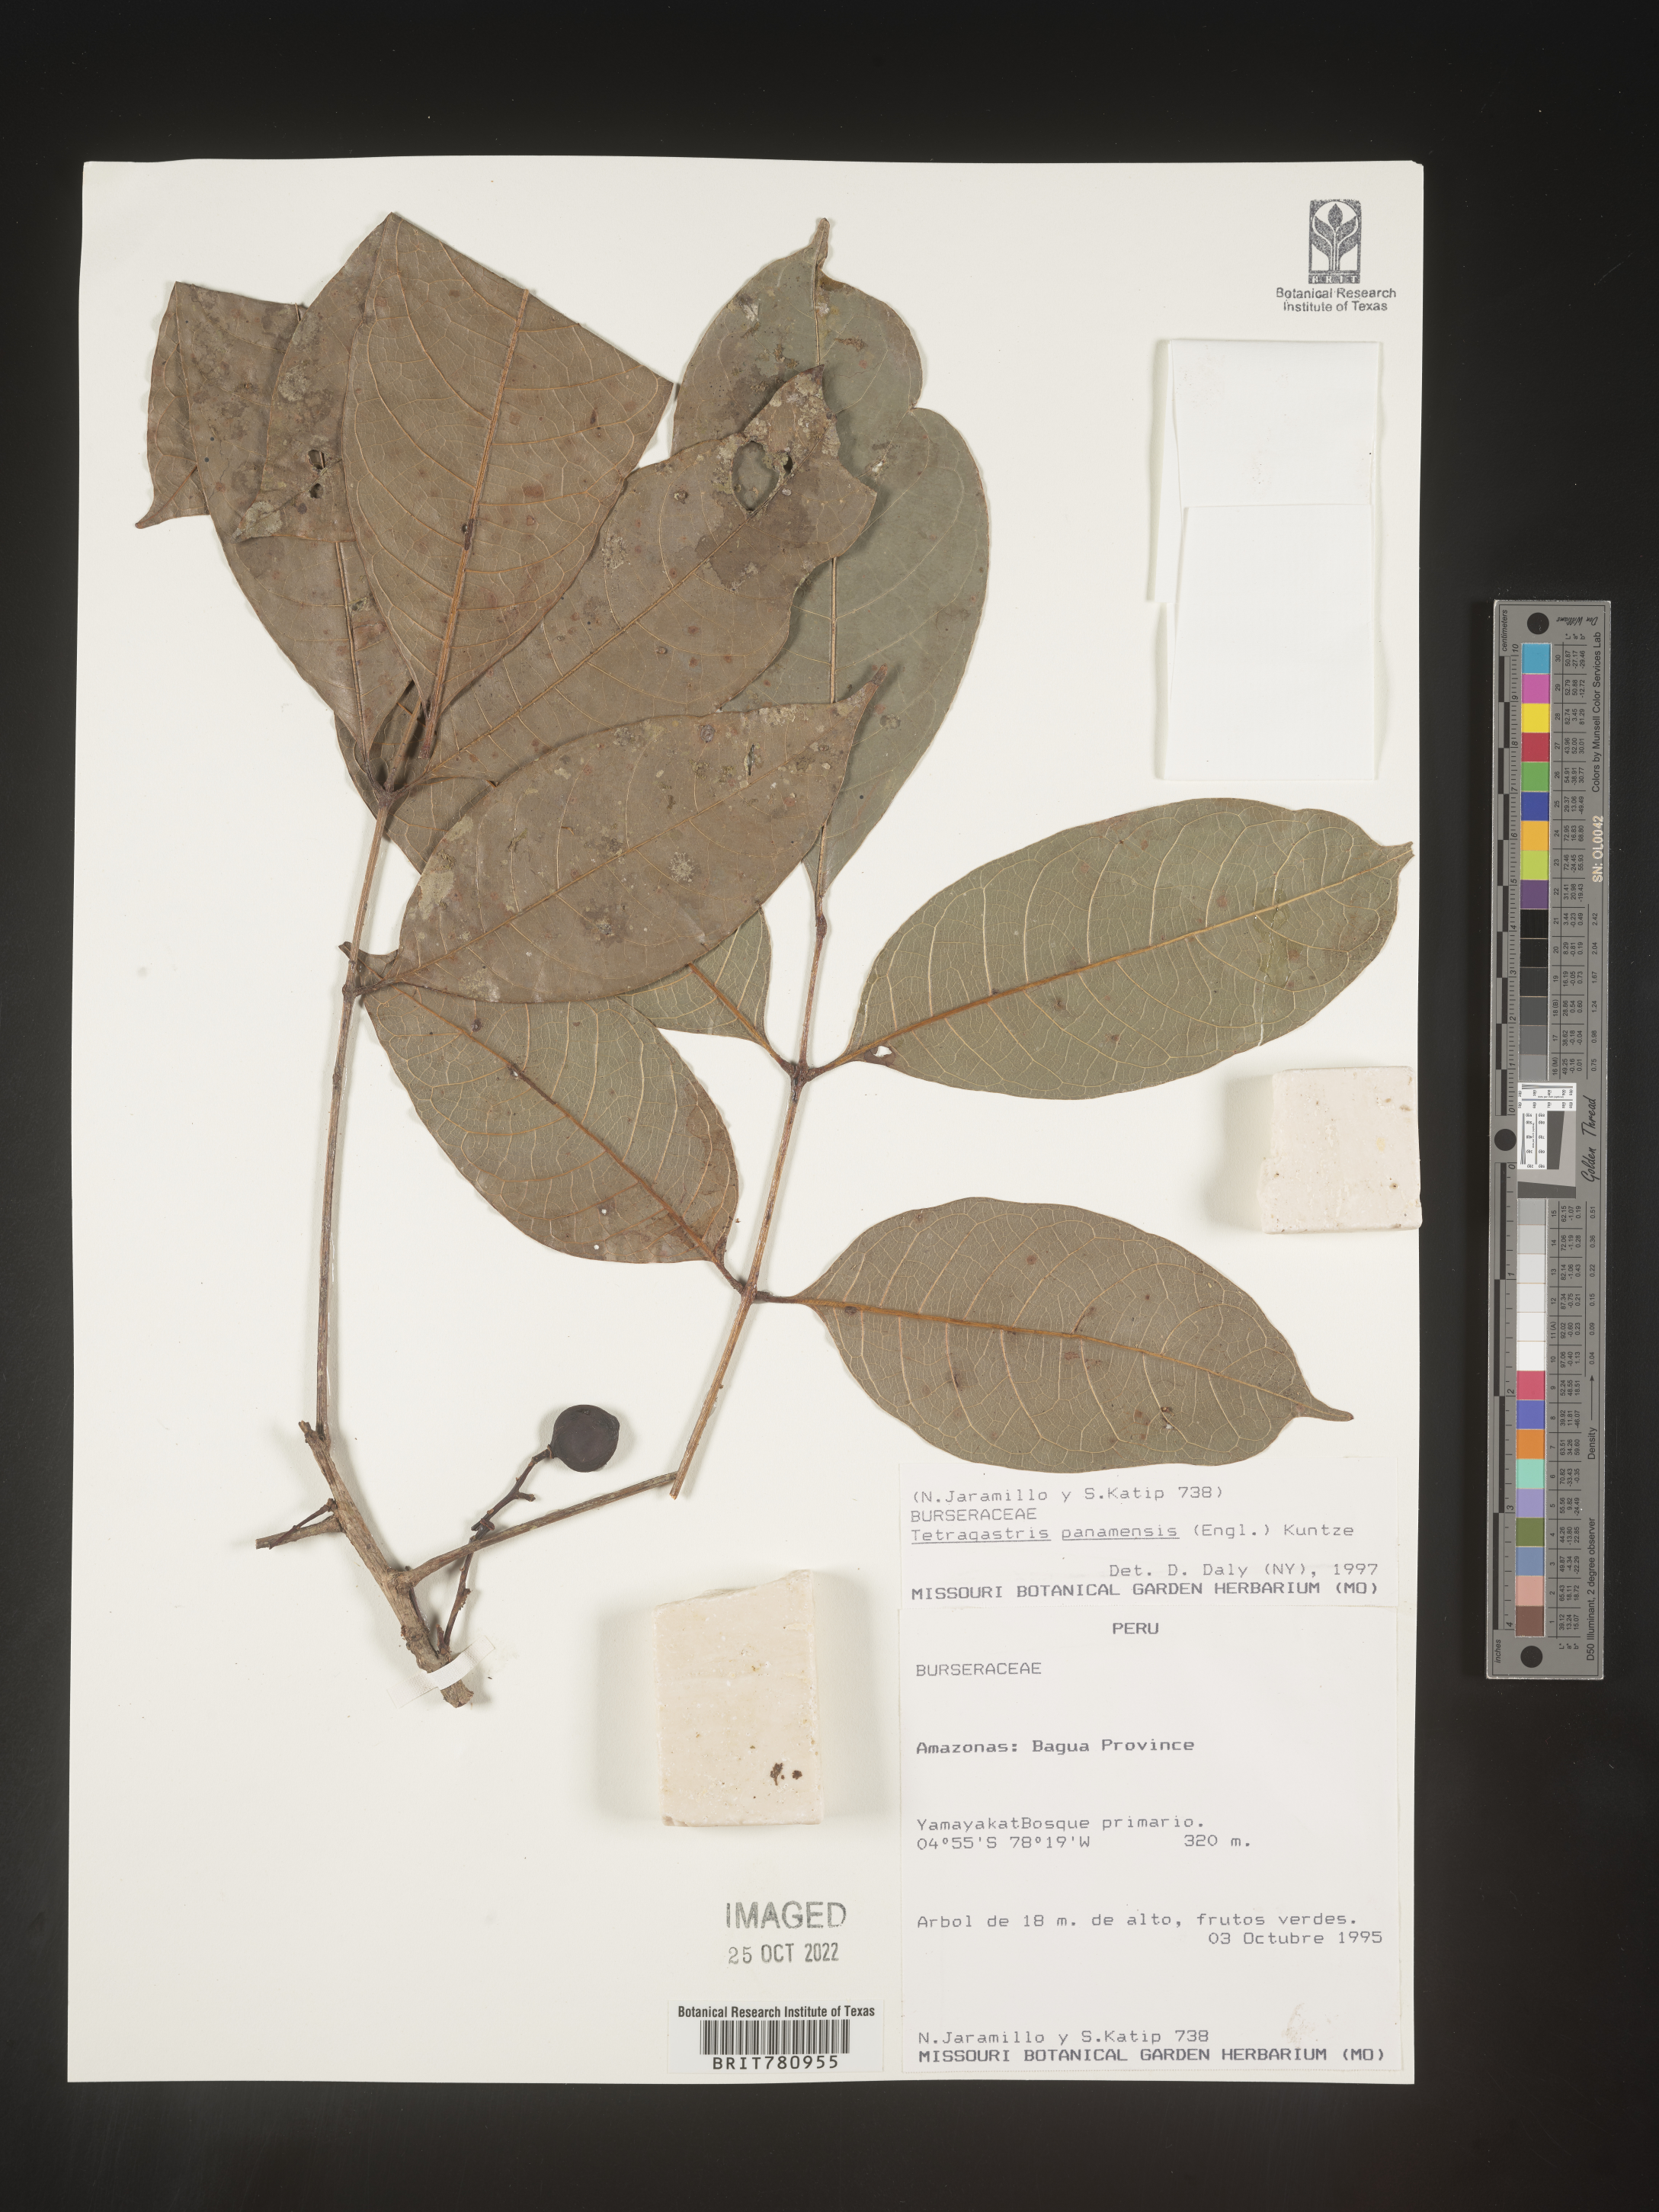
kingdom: Plantae
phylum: Tracheophyta
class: Magnoliopsida
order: Sapindales
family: Burseraceae
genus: Tetragastris
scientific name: Tetragastris
